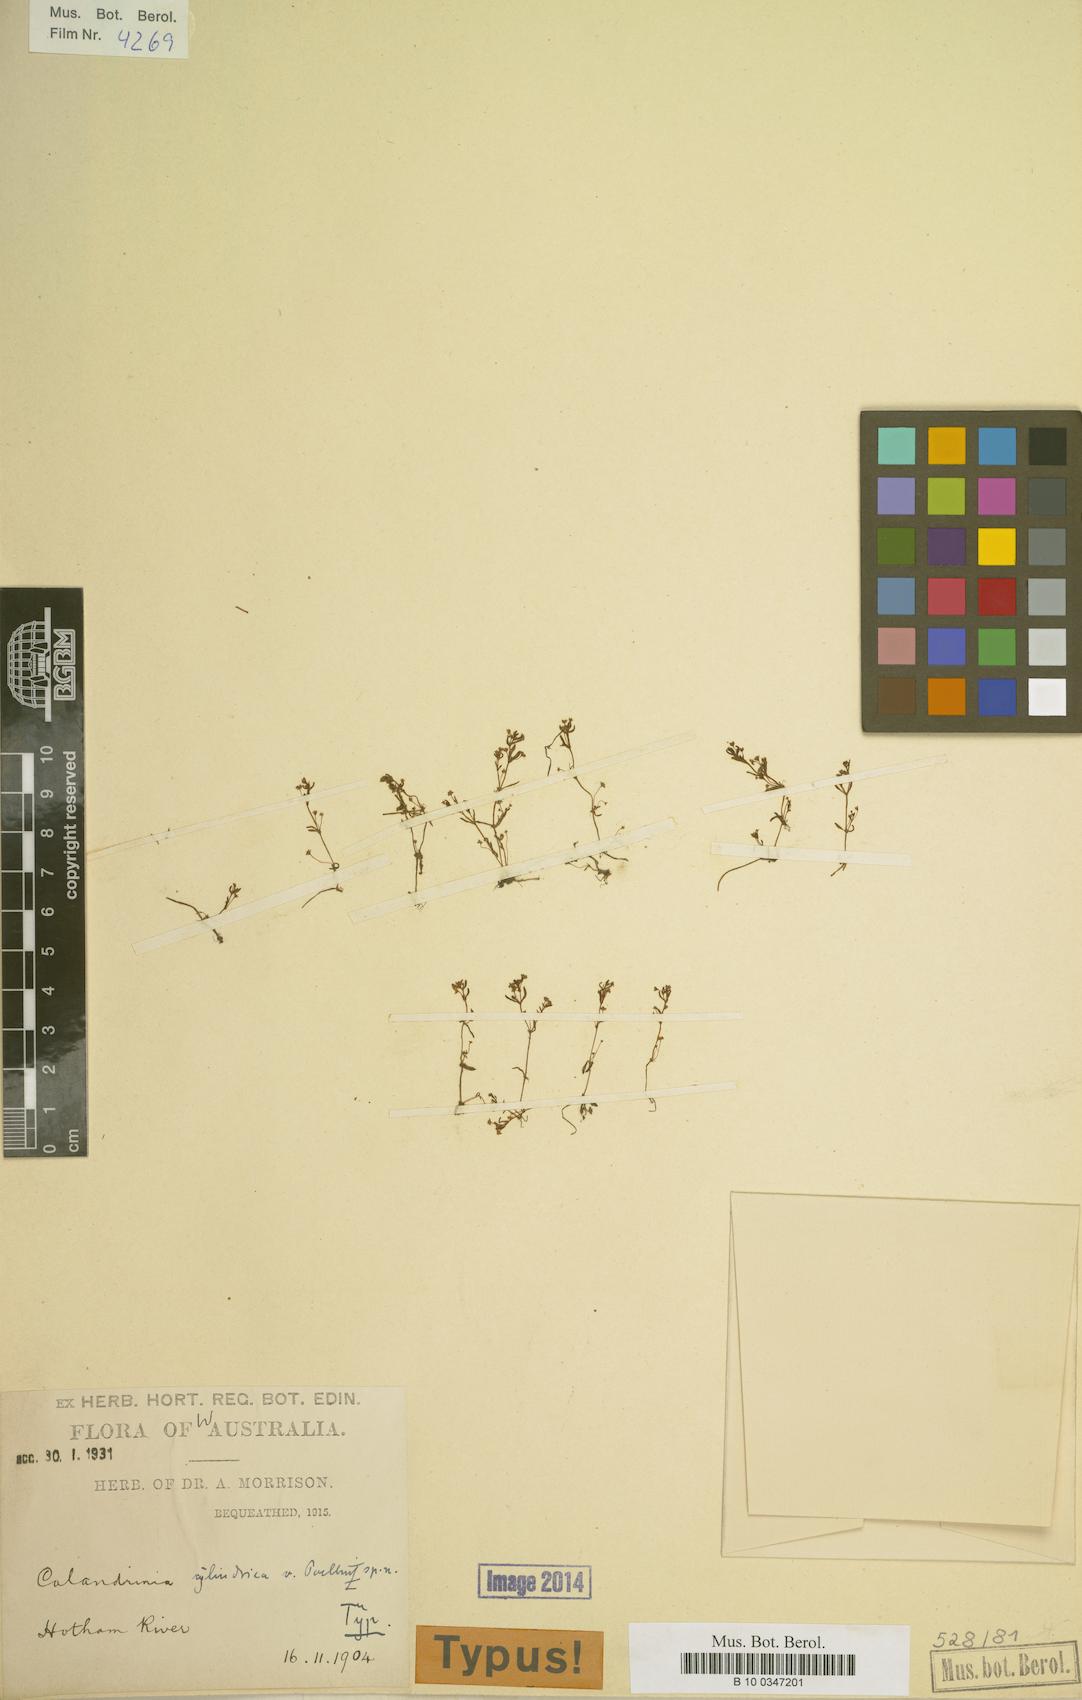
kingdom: Plantae
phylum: Tracheophyta
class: Magnoliopsida
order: Caryophyllales
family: Montiaceae
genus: Rumicastrum
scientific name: Rumicastrum cylindricum
